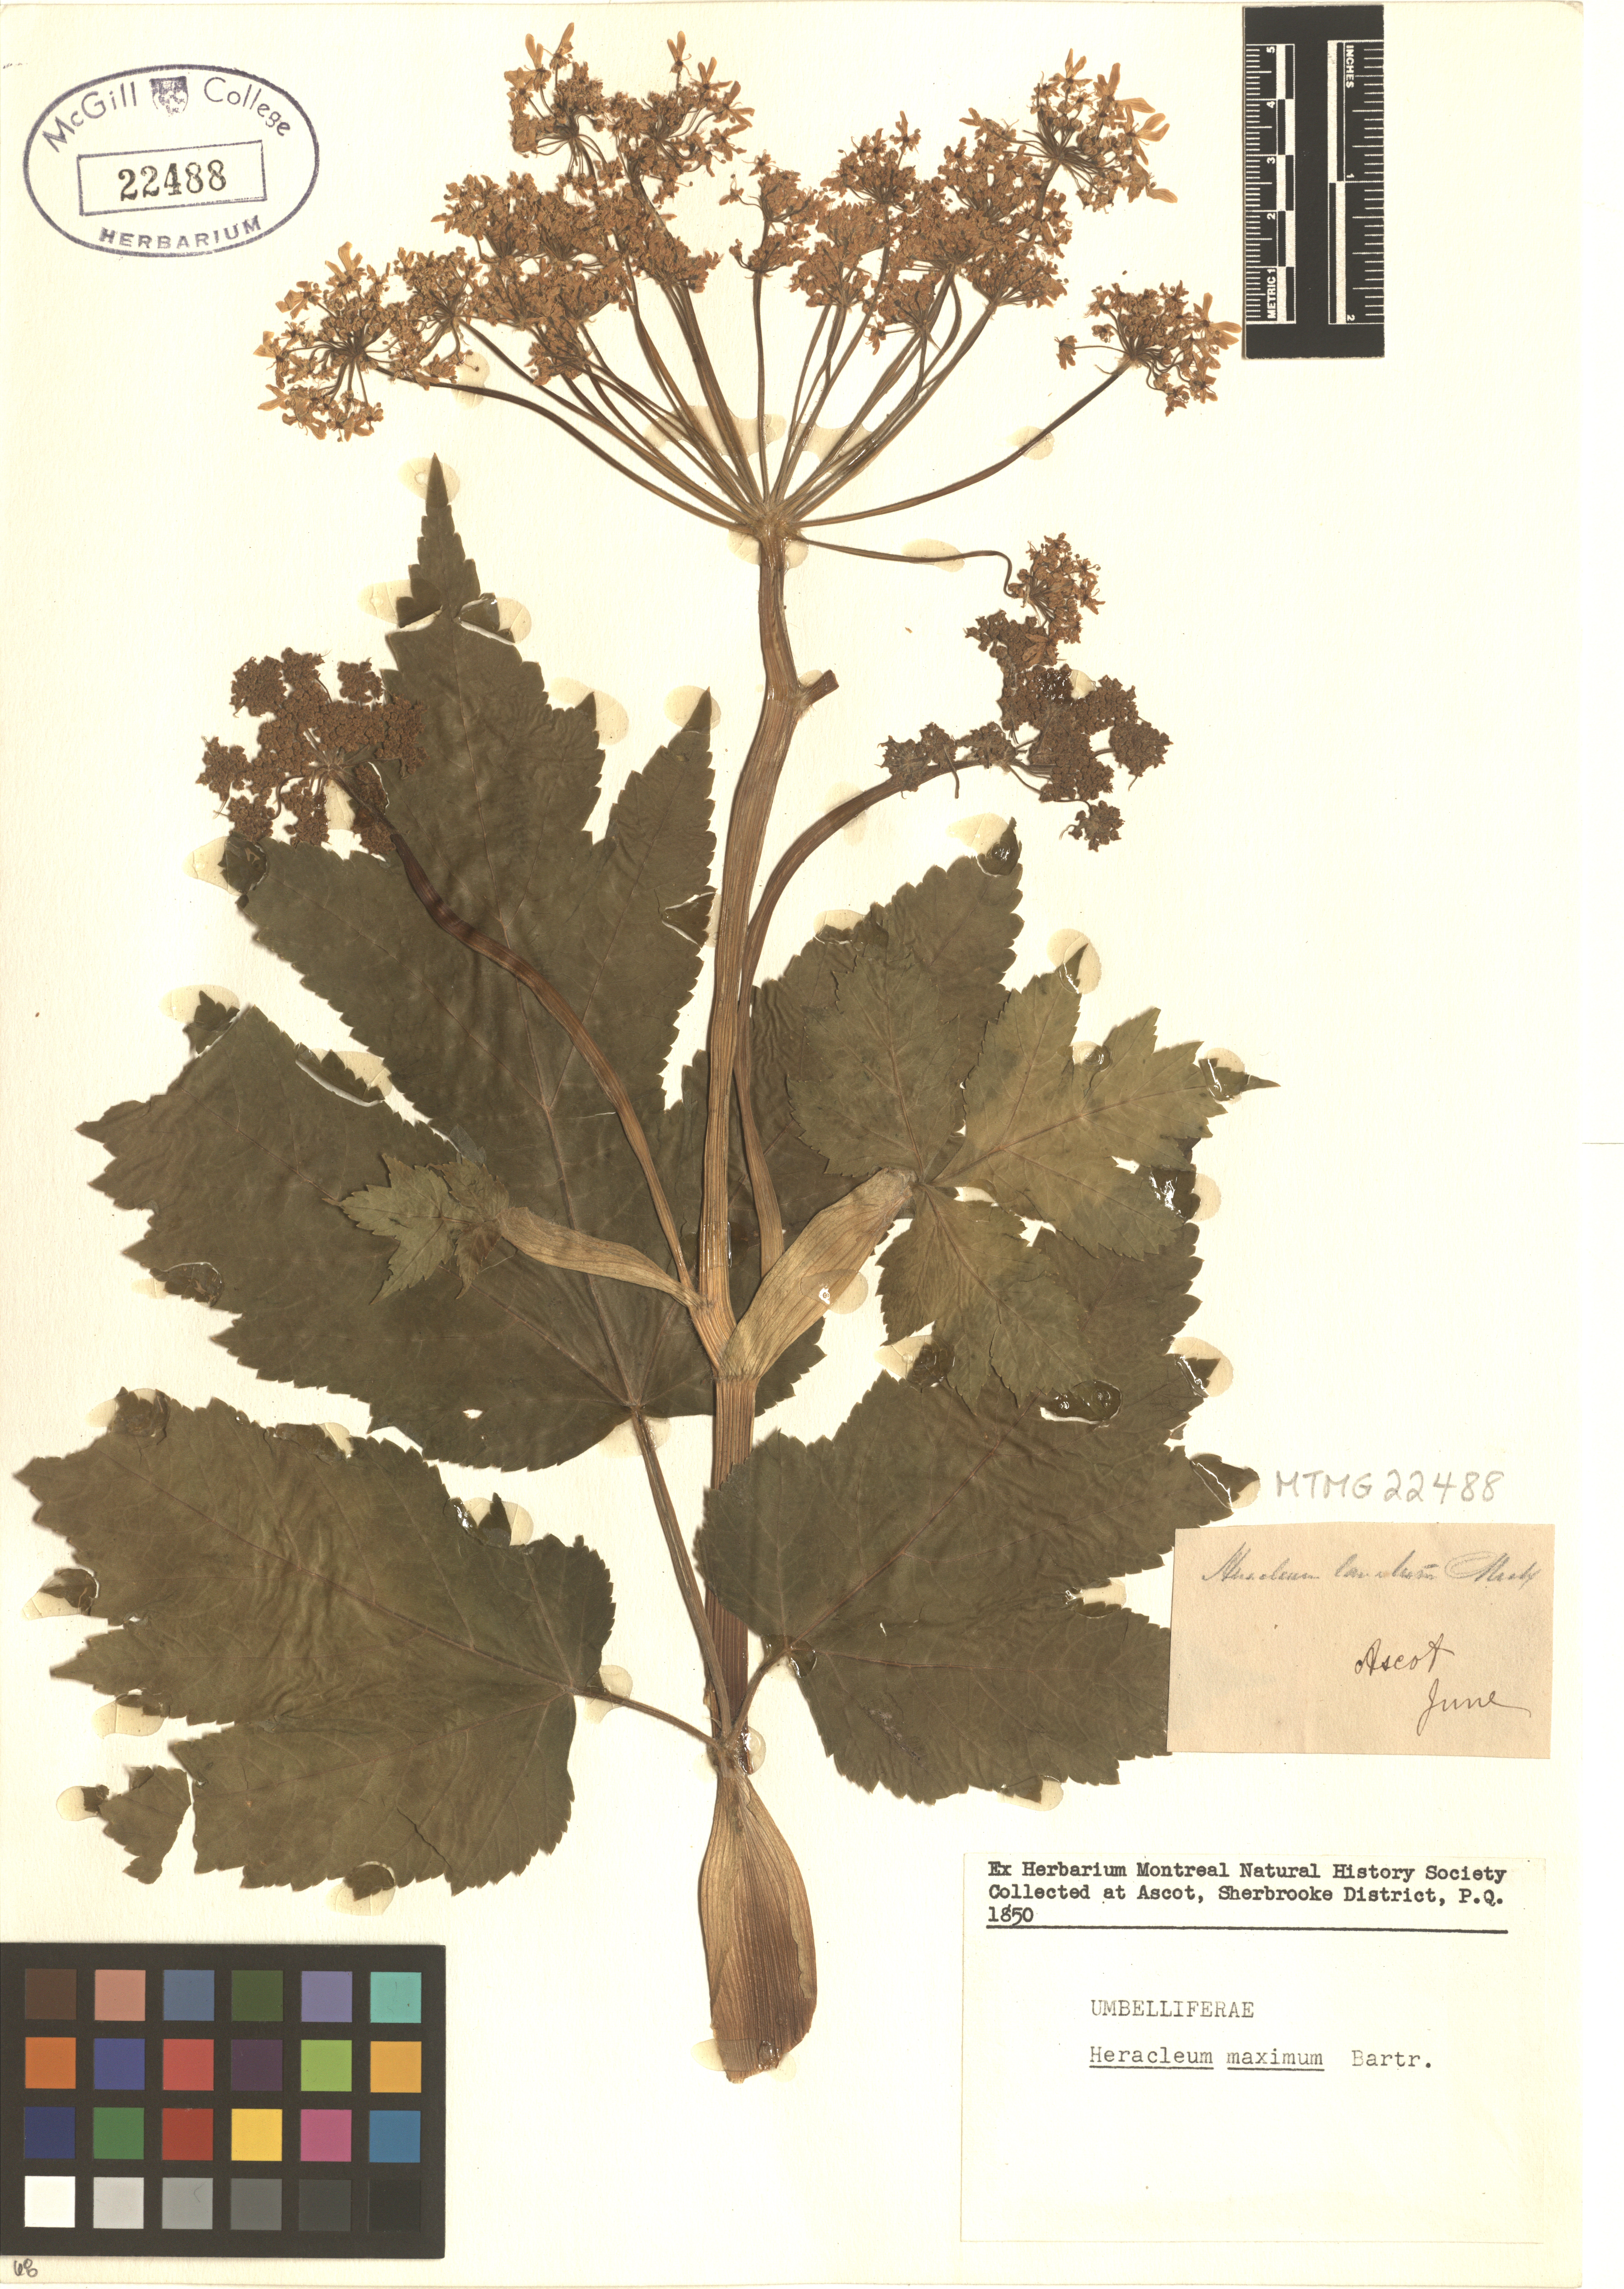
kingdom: Plantae
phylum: Tracheophyta
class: Magnoliopsida
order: Apiales
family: Apiaceae
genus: Heracleum
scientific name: Heracleum maximum
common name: American cow parsnip
